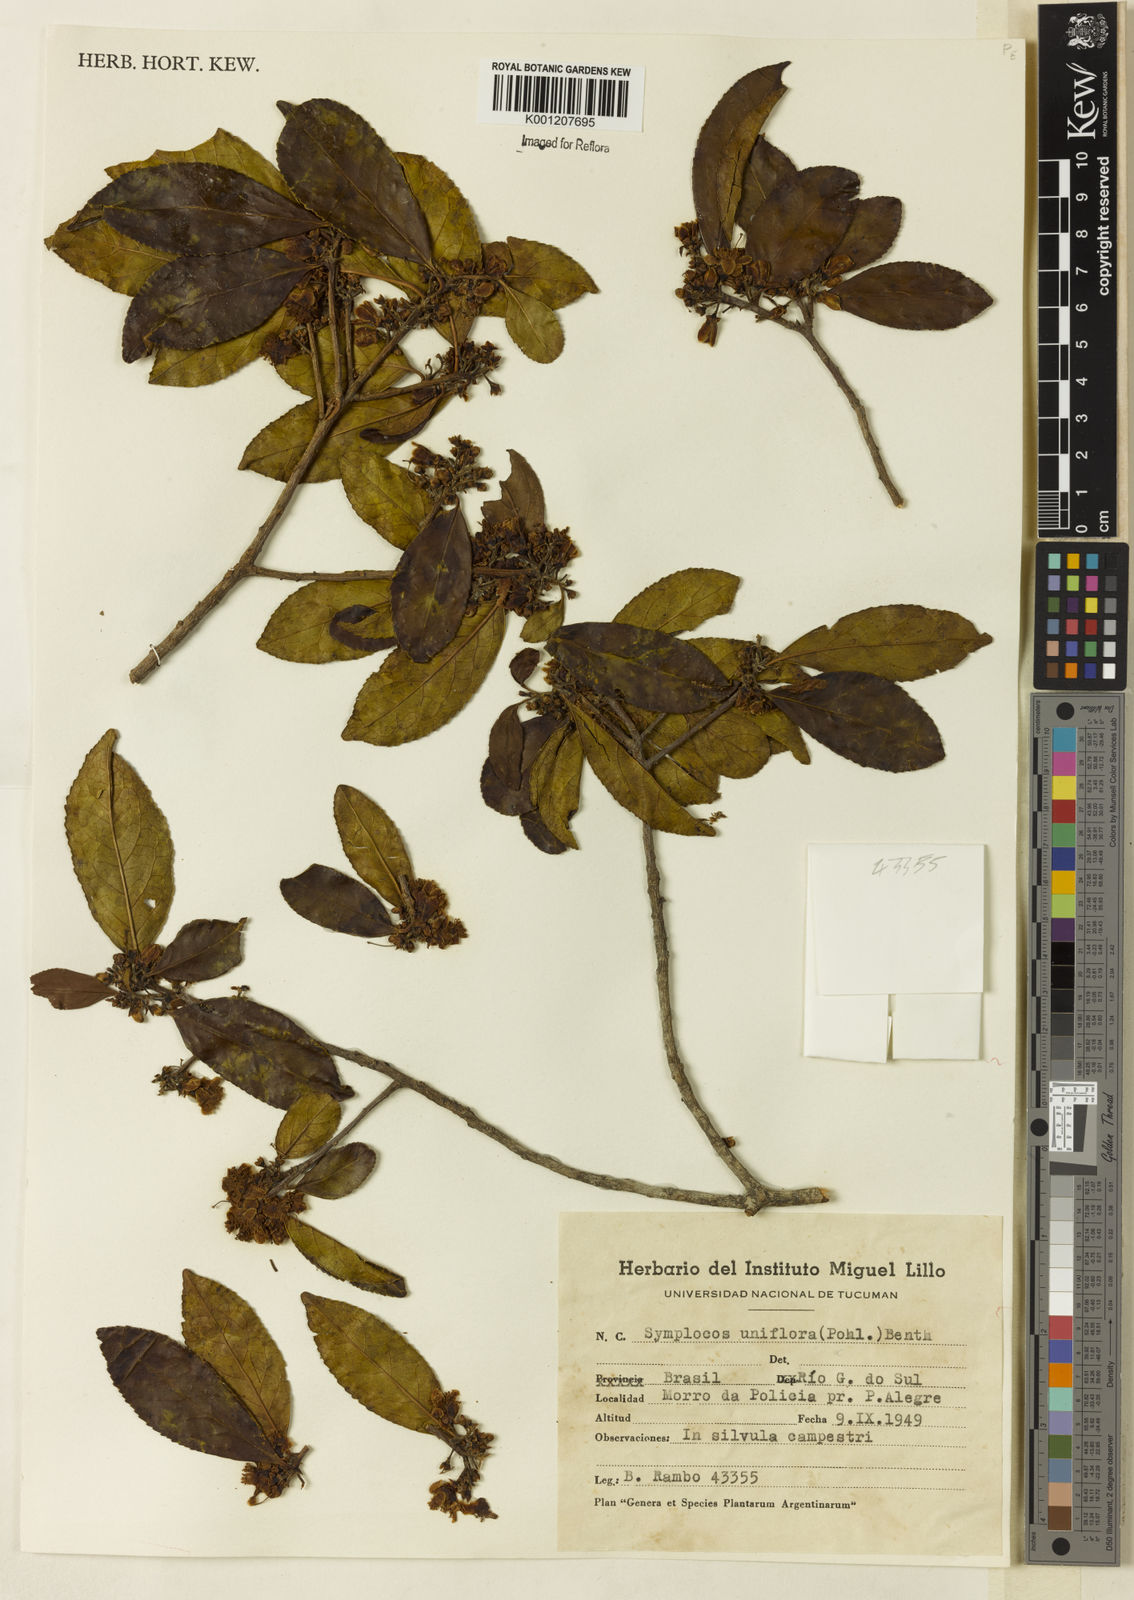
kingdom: Plantae
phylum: Tracheophyta
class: Magnoliopsida
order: Ericales
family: Symplocaceae
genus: Symplocos
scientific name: Symplocos uniflora
